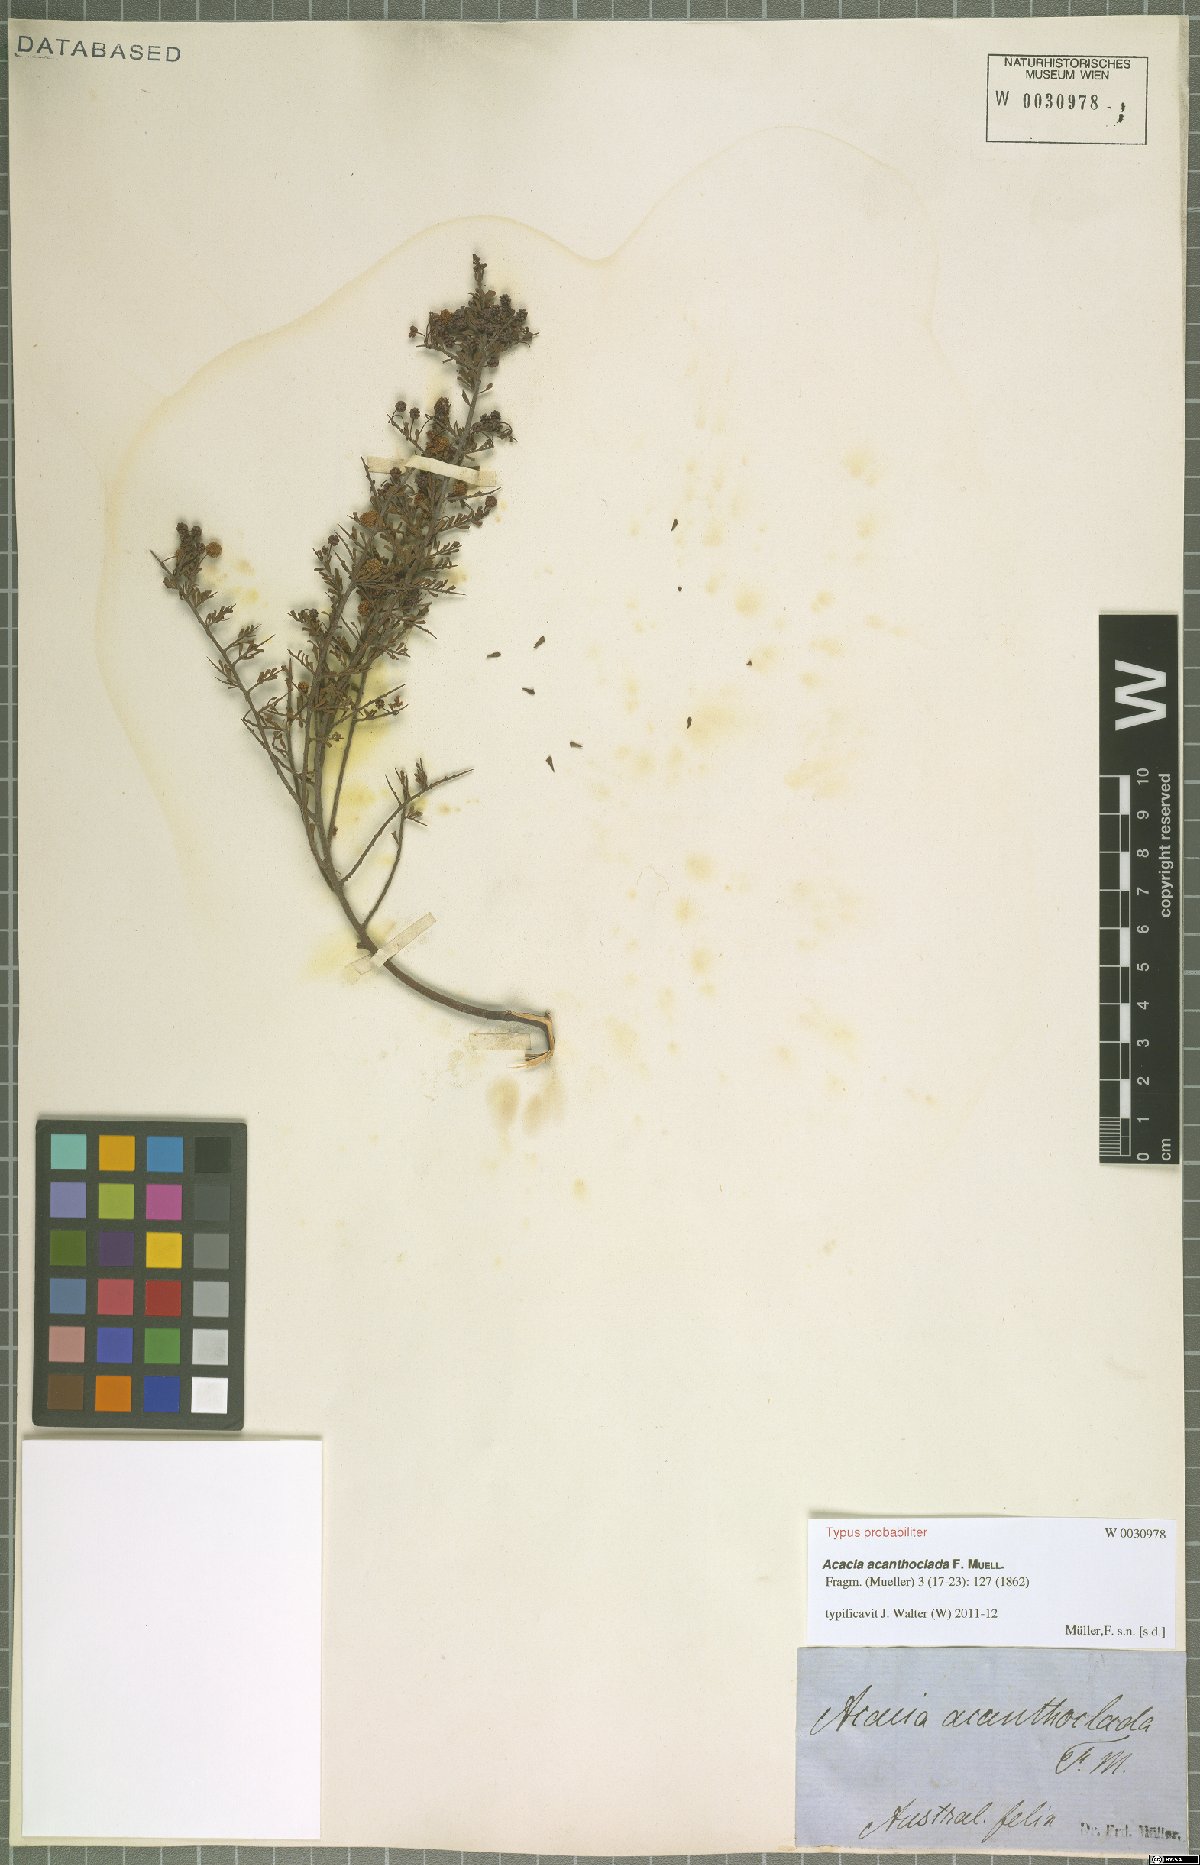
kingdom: Plantae
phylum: Tracheophyta
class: Magnoliopsida
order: Fabales
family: Fabaceae
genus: Acacia
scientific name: Acacia acanthoclada
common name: Harrow wattle
